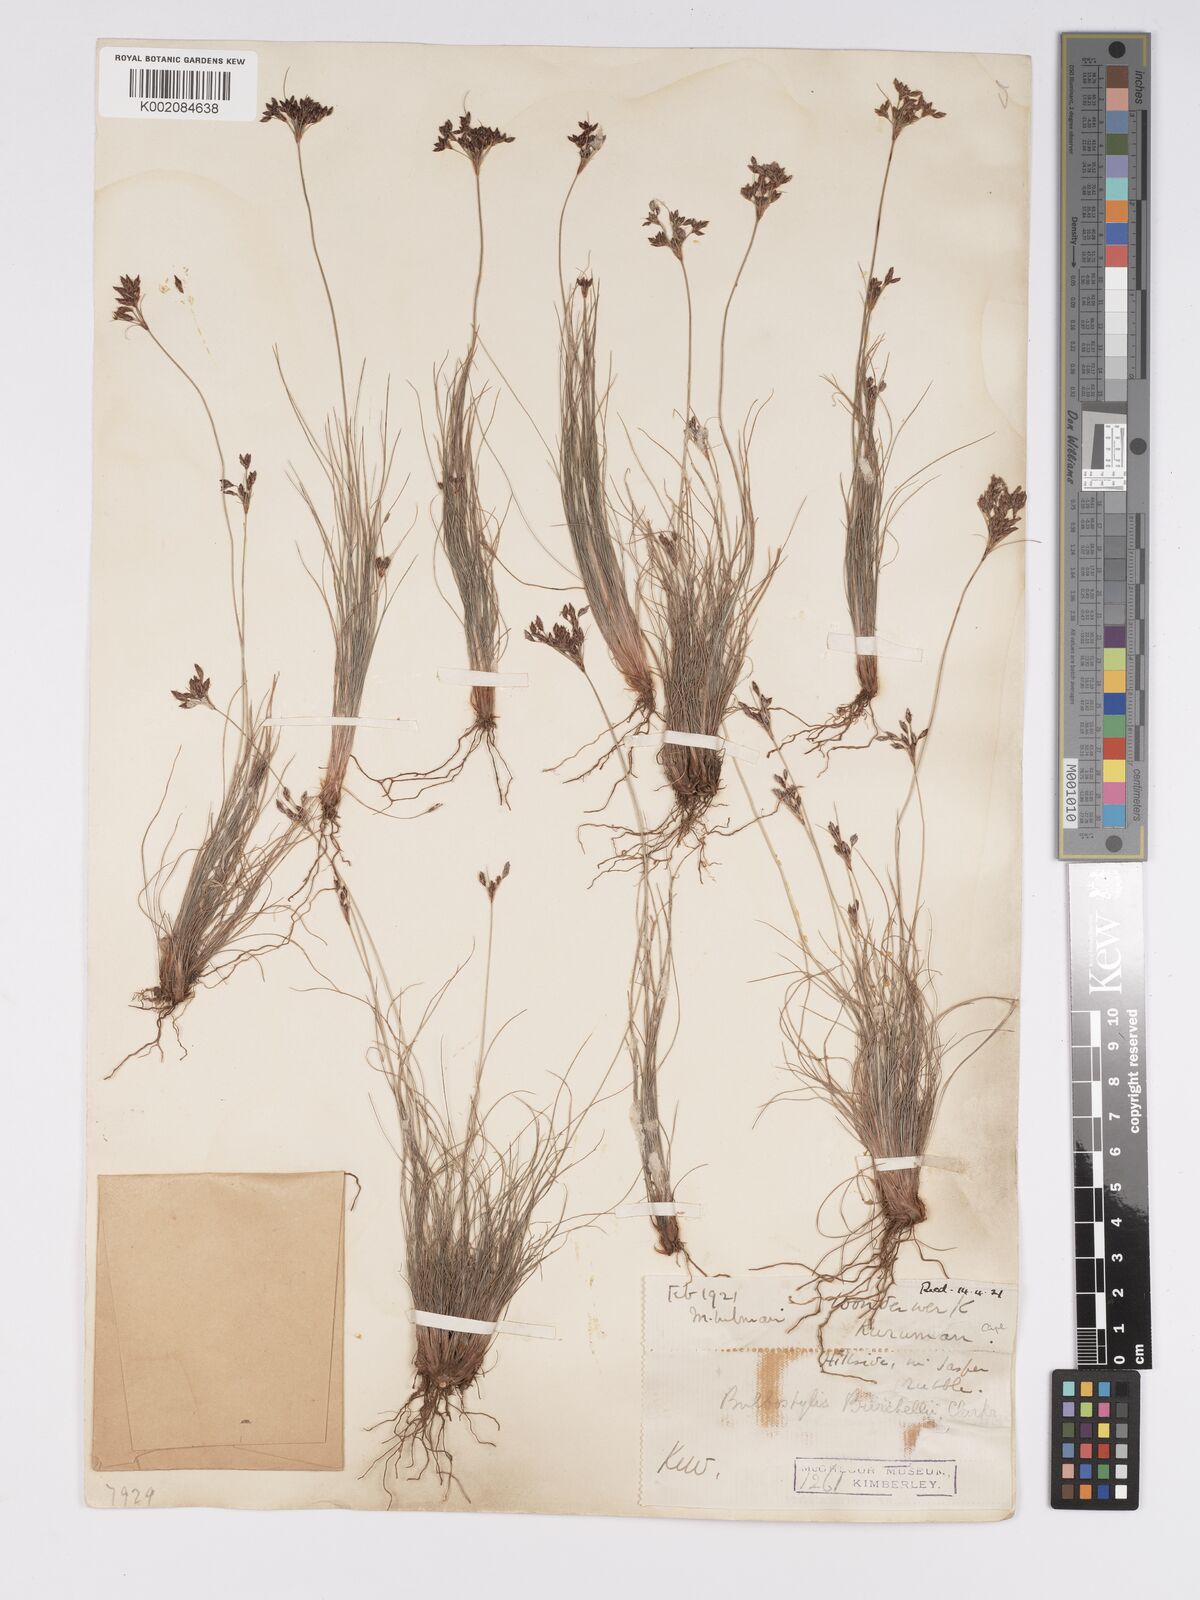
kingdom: Plantae
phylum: Tracheophyta
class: Liliopsida
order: Poales
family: Cyperaceae
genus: Bulbostylis
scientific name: Bulbostylis burchellii
